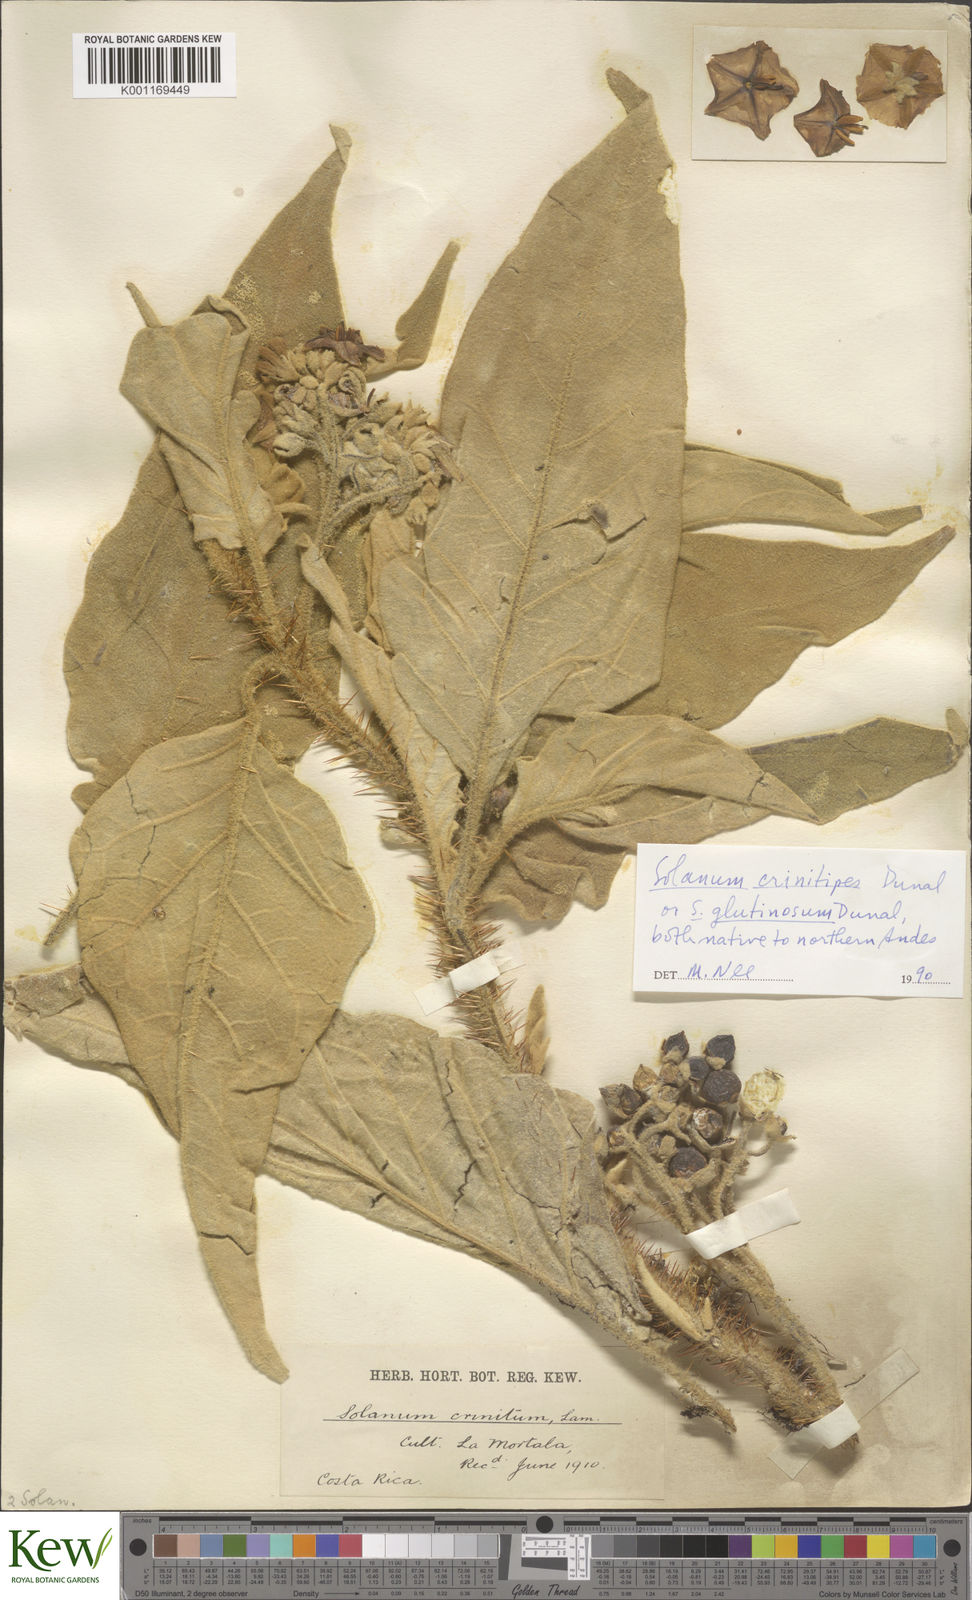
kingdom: Plantae
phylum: Tracheophyta
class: Magnoliopsida
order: Solanales
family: Solanaceae
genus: Solanum
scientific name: Solanum crinitipes
